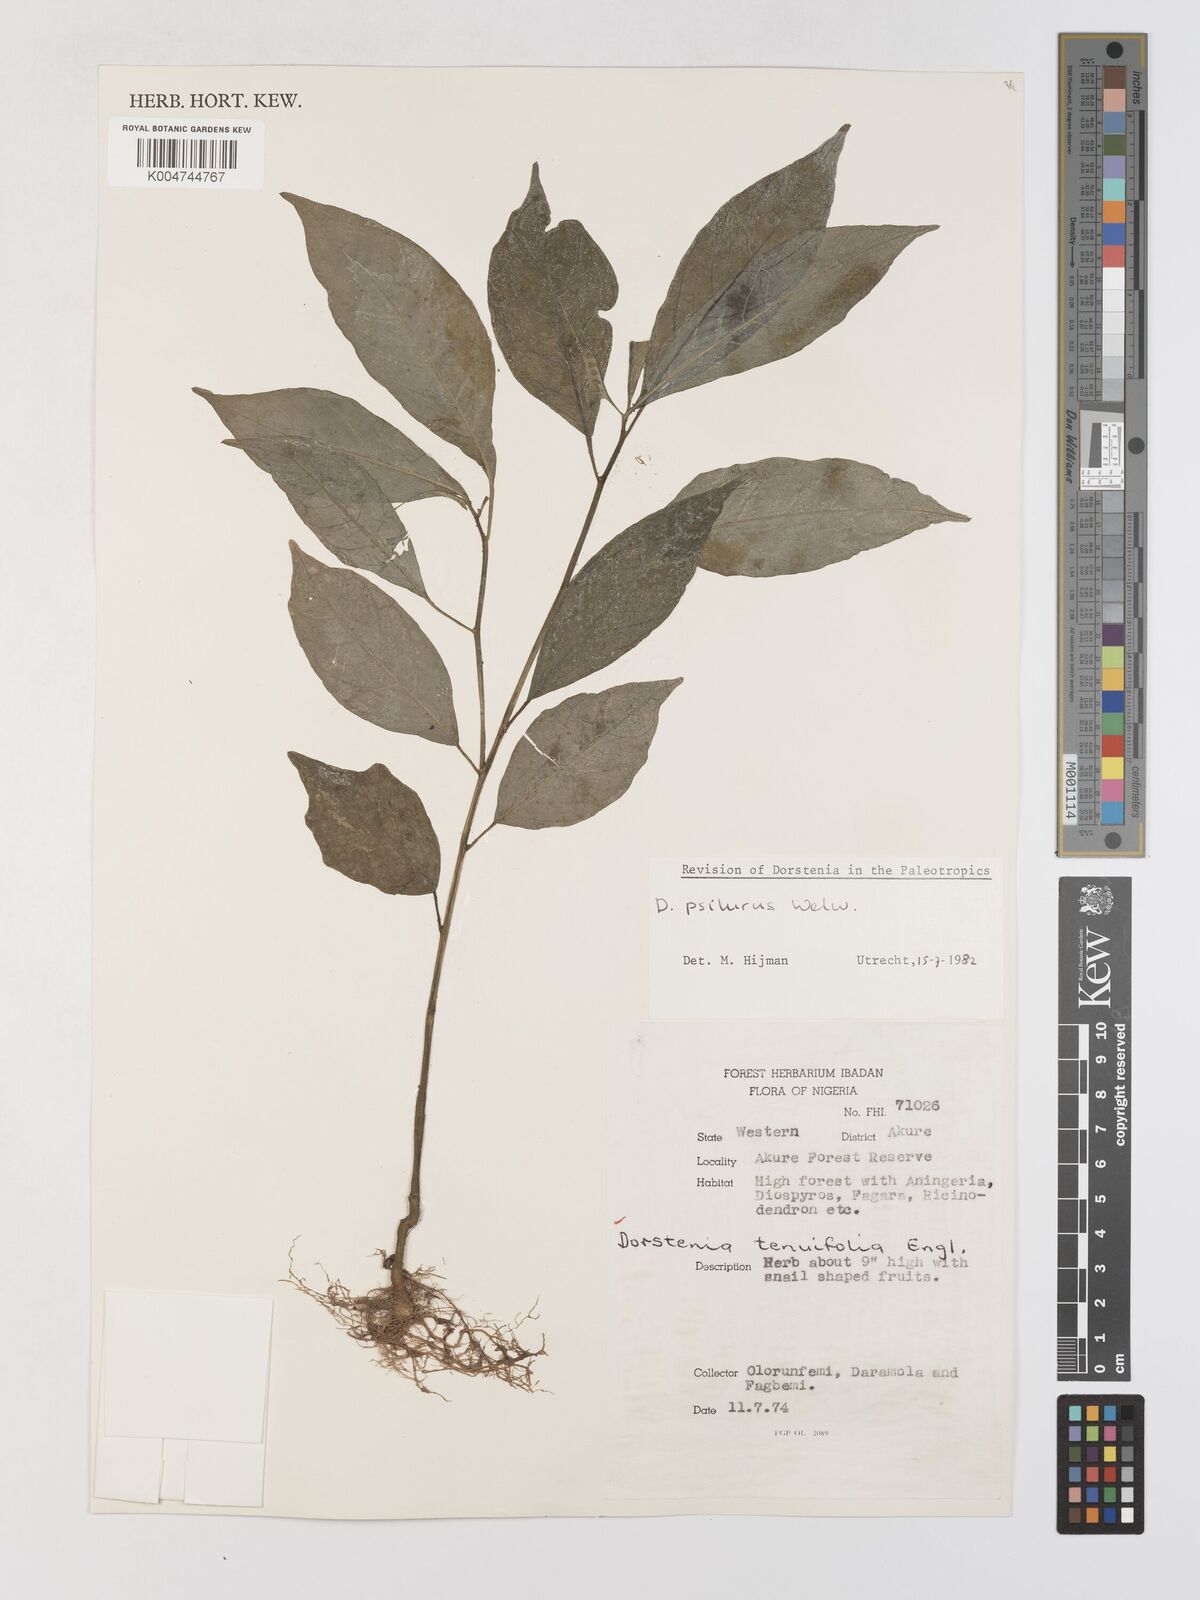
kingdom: Plantae
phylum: Tracheophyta
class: Magnoliopsida
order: Rosales
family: Moraceae
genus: Dorstenia
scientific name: Dorstenia psilurus
